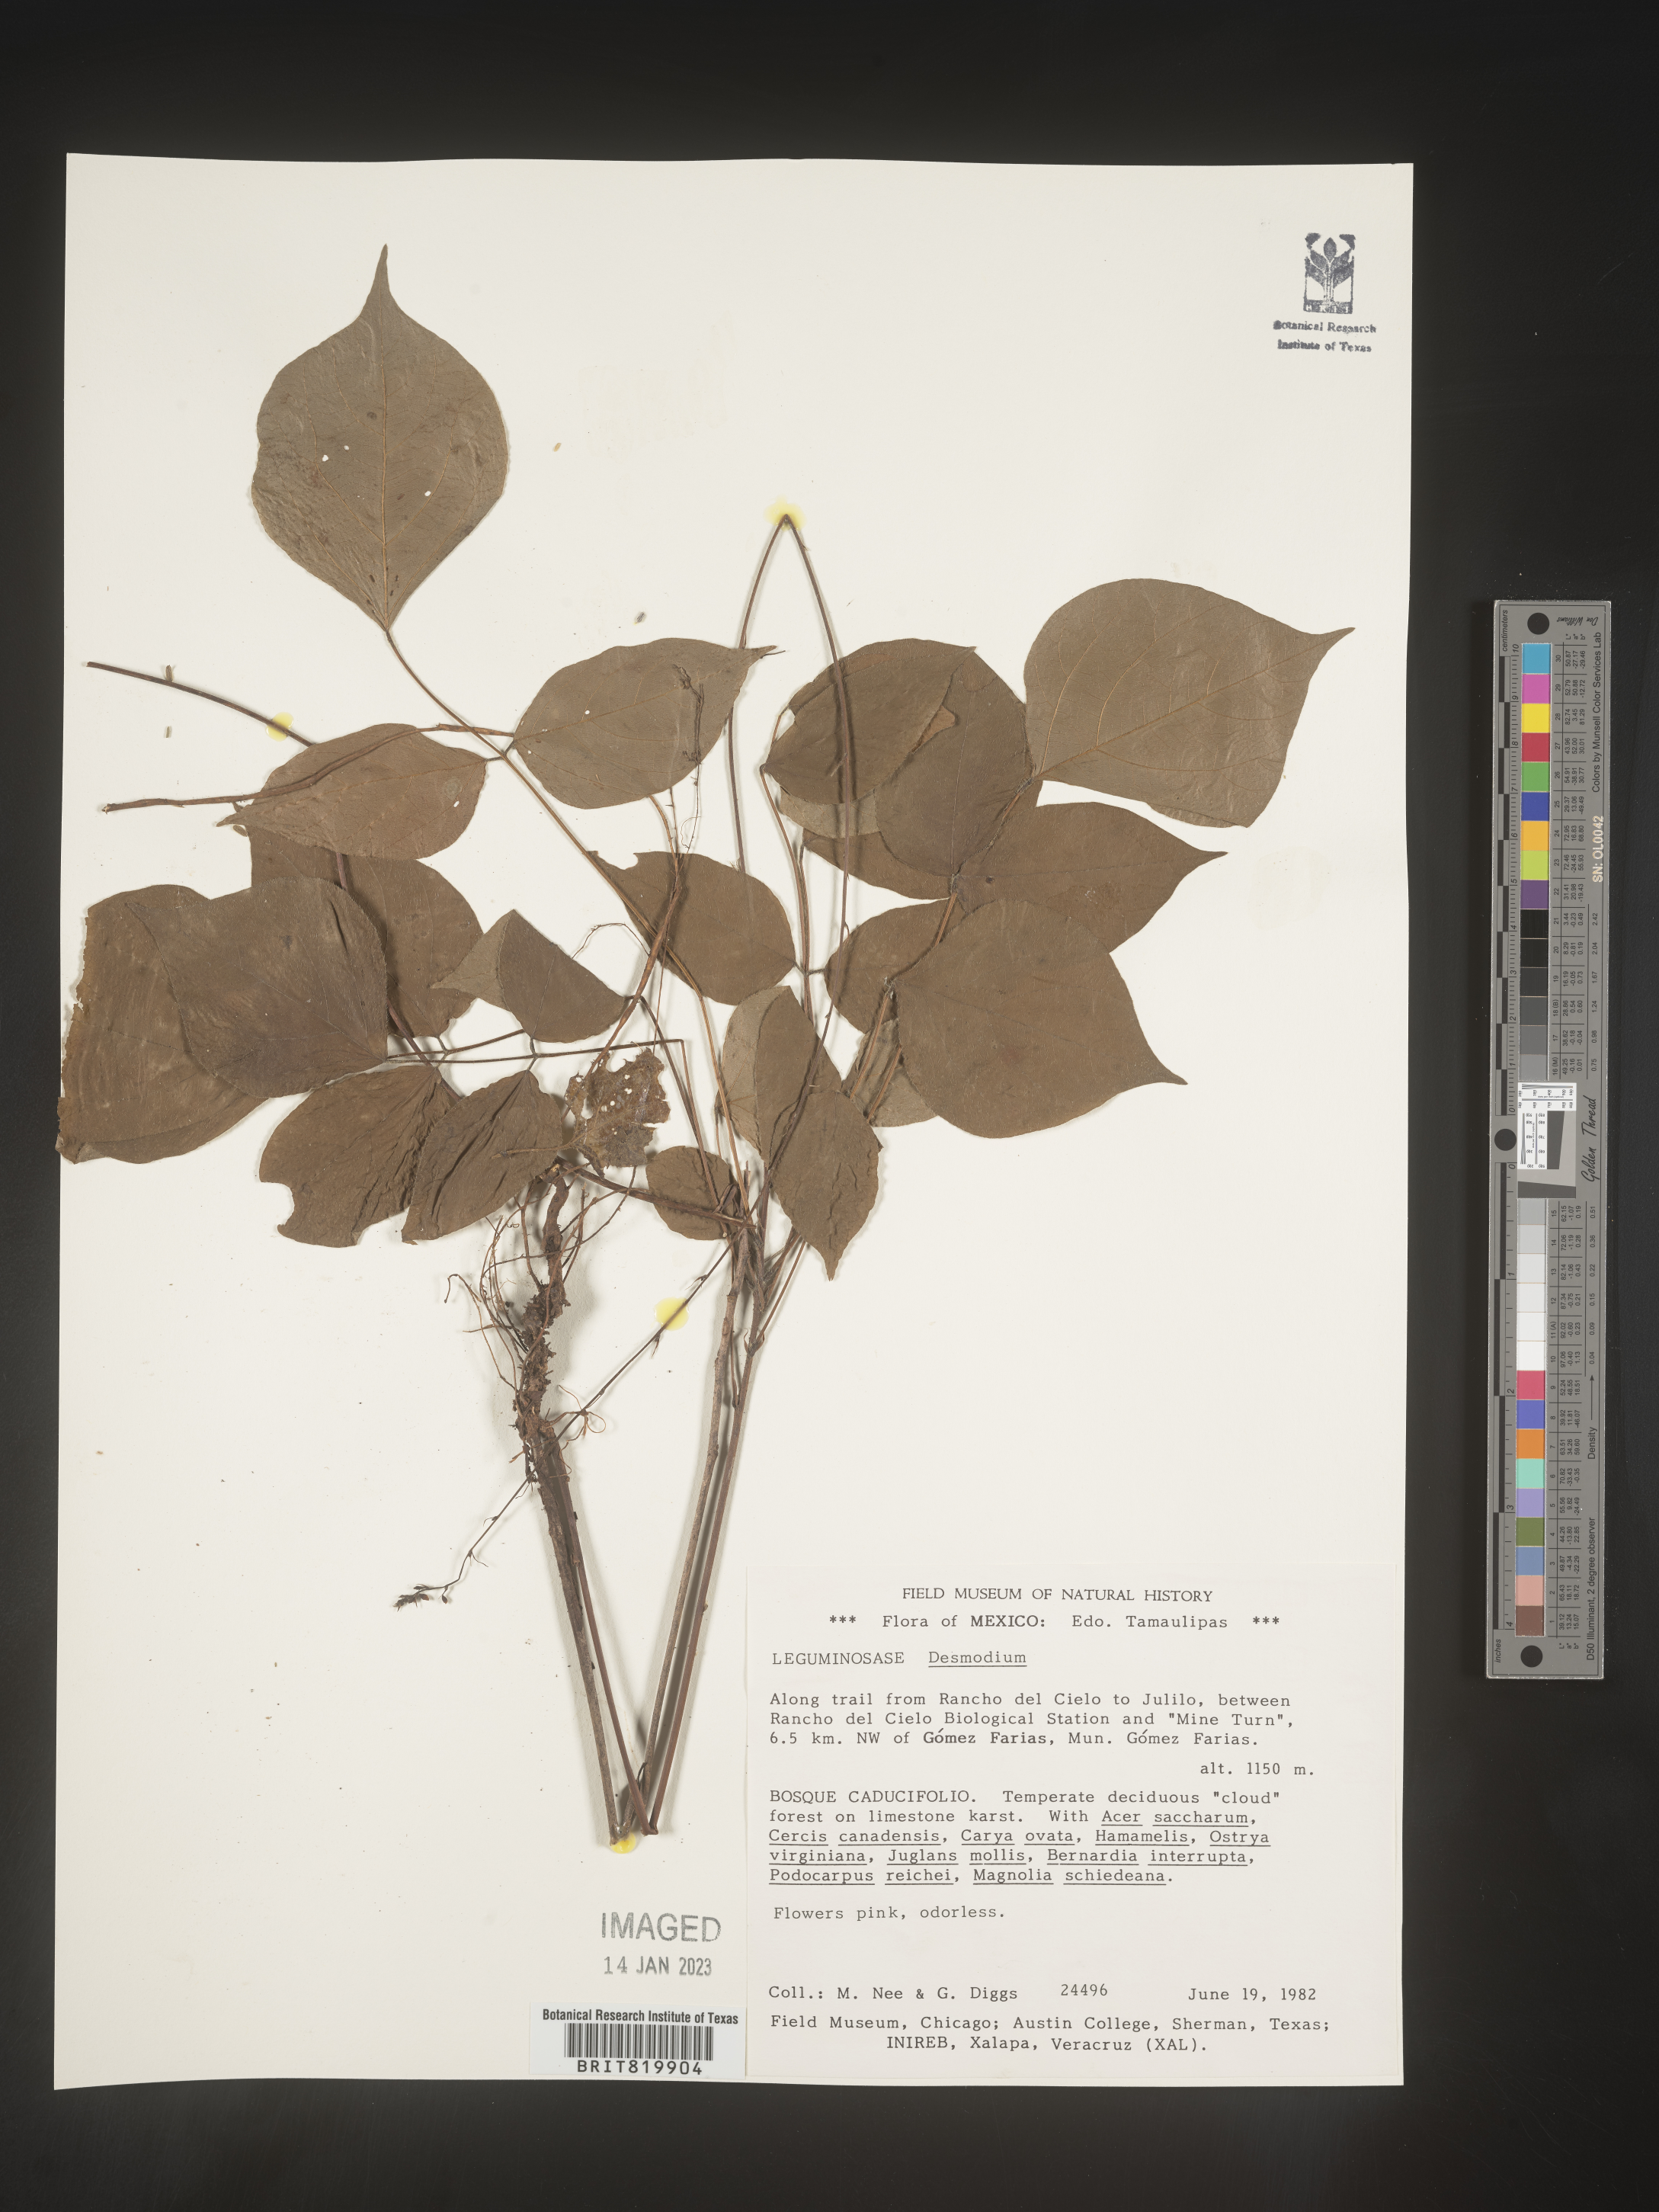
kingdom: Plantae
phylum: Tracheophyta
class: Magnoliopsida
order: Fabales
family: Fabaceae
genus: Desmodium
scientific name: Desmodium
